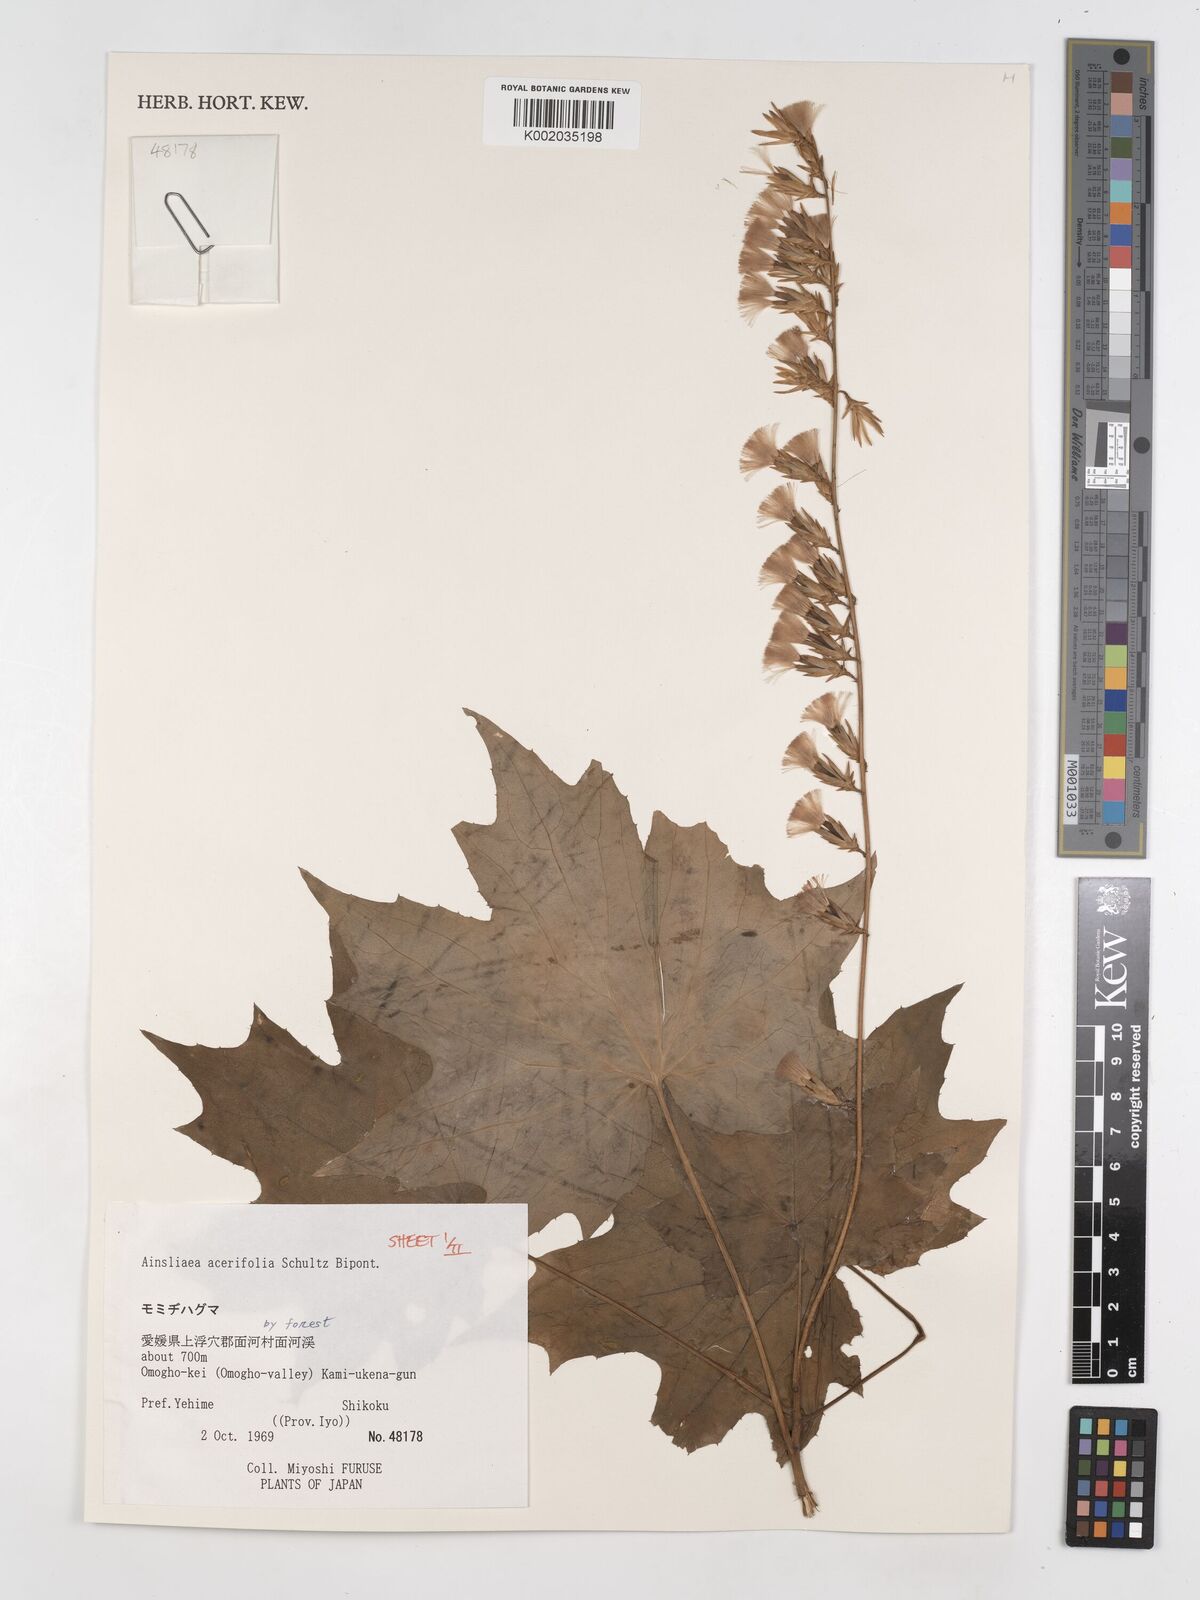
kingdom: Plantae
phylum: Tracheophyta
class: Magnoliopsida
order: Asterales
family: Asteraceae
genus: Ainsliaea
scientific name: Ainsliaea acerifolia
